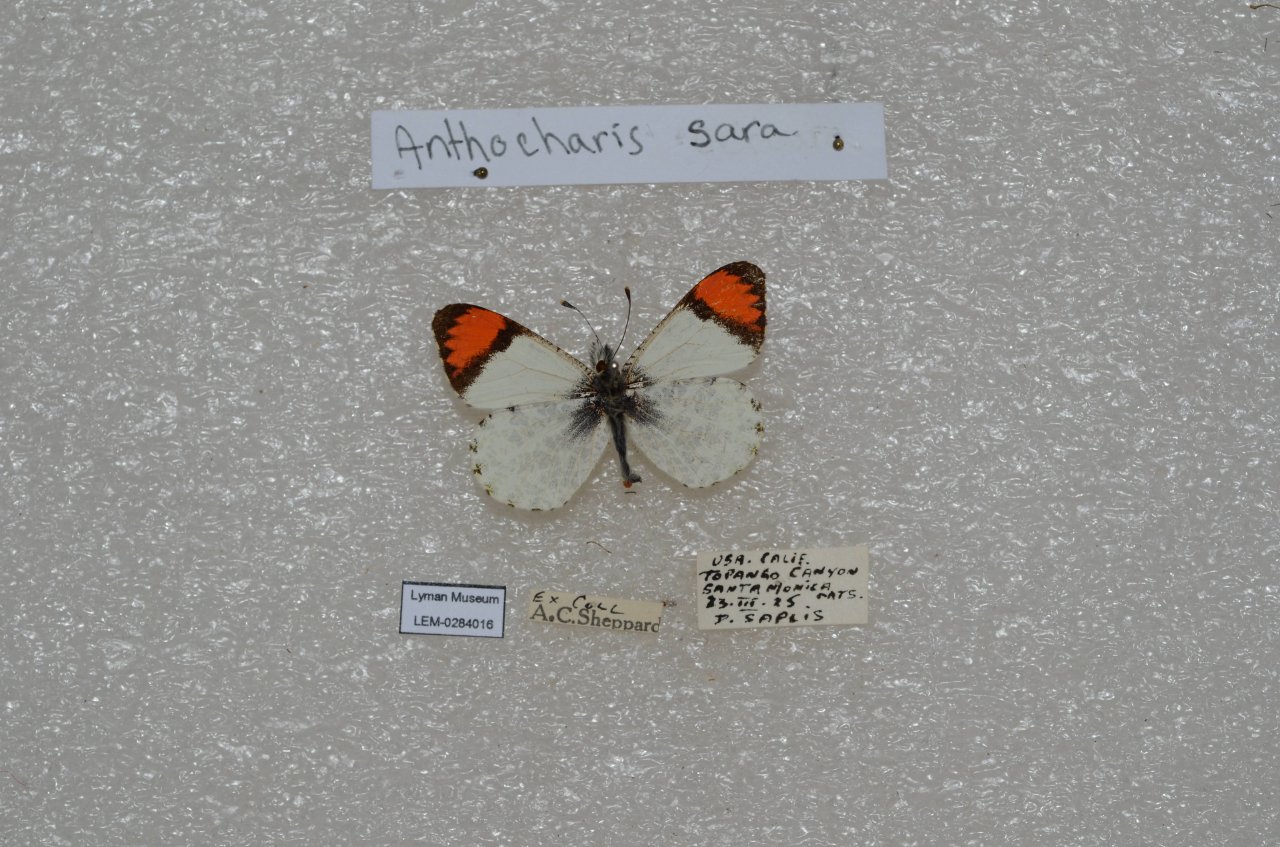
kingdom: Animalia
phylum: Arthropoda
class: Insecta
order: Lepidoptera
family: Pieridae
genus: Anthocharis
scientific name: Anthocharis sara
